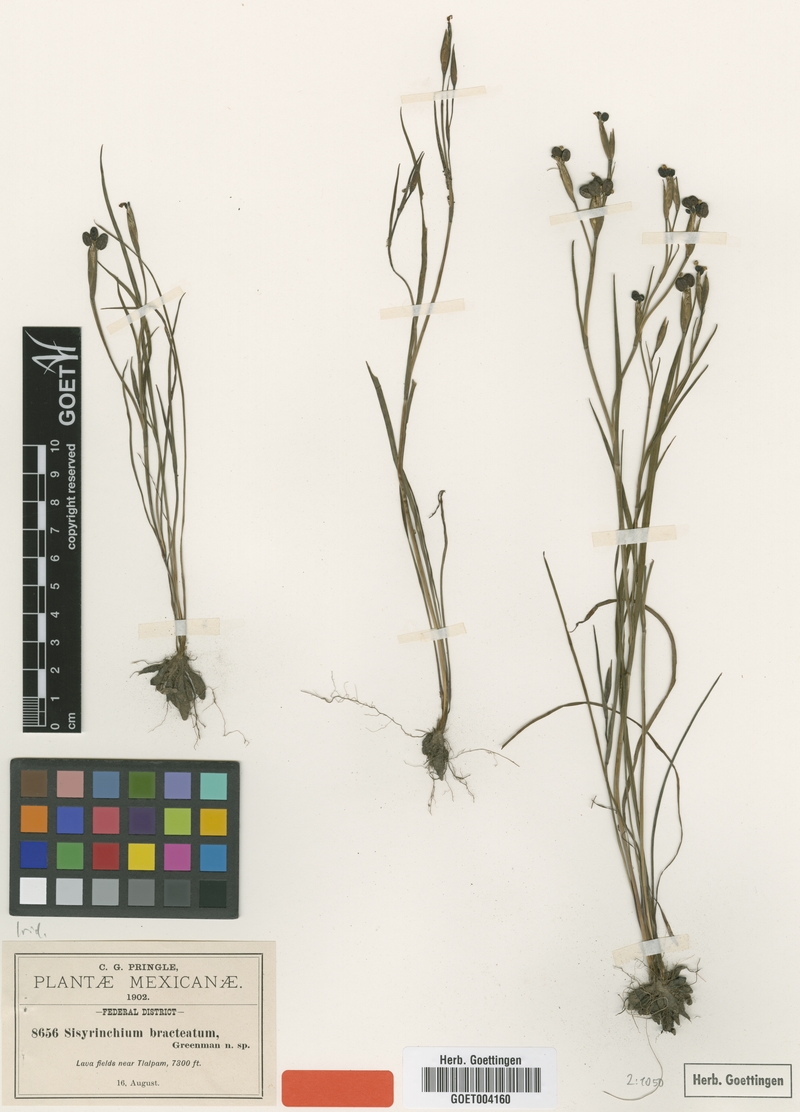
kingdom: Plantae
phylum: Tracheophyta
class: Liliopsida
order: Asparagales
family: Iridaceae
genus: Sisyrinchium
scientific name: Sisyrinchium tenuifolium
